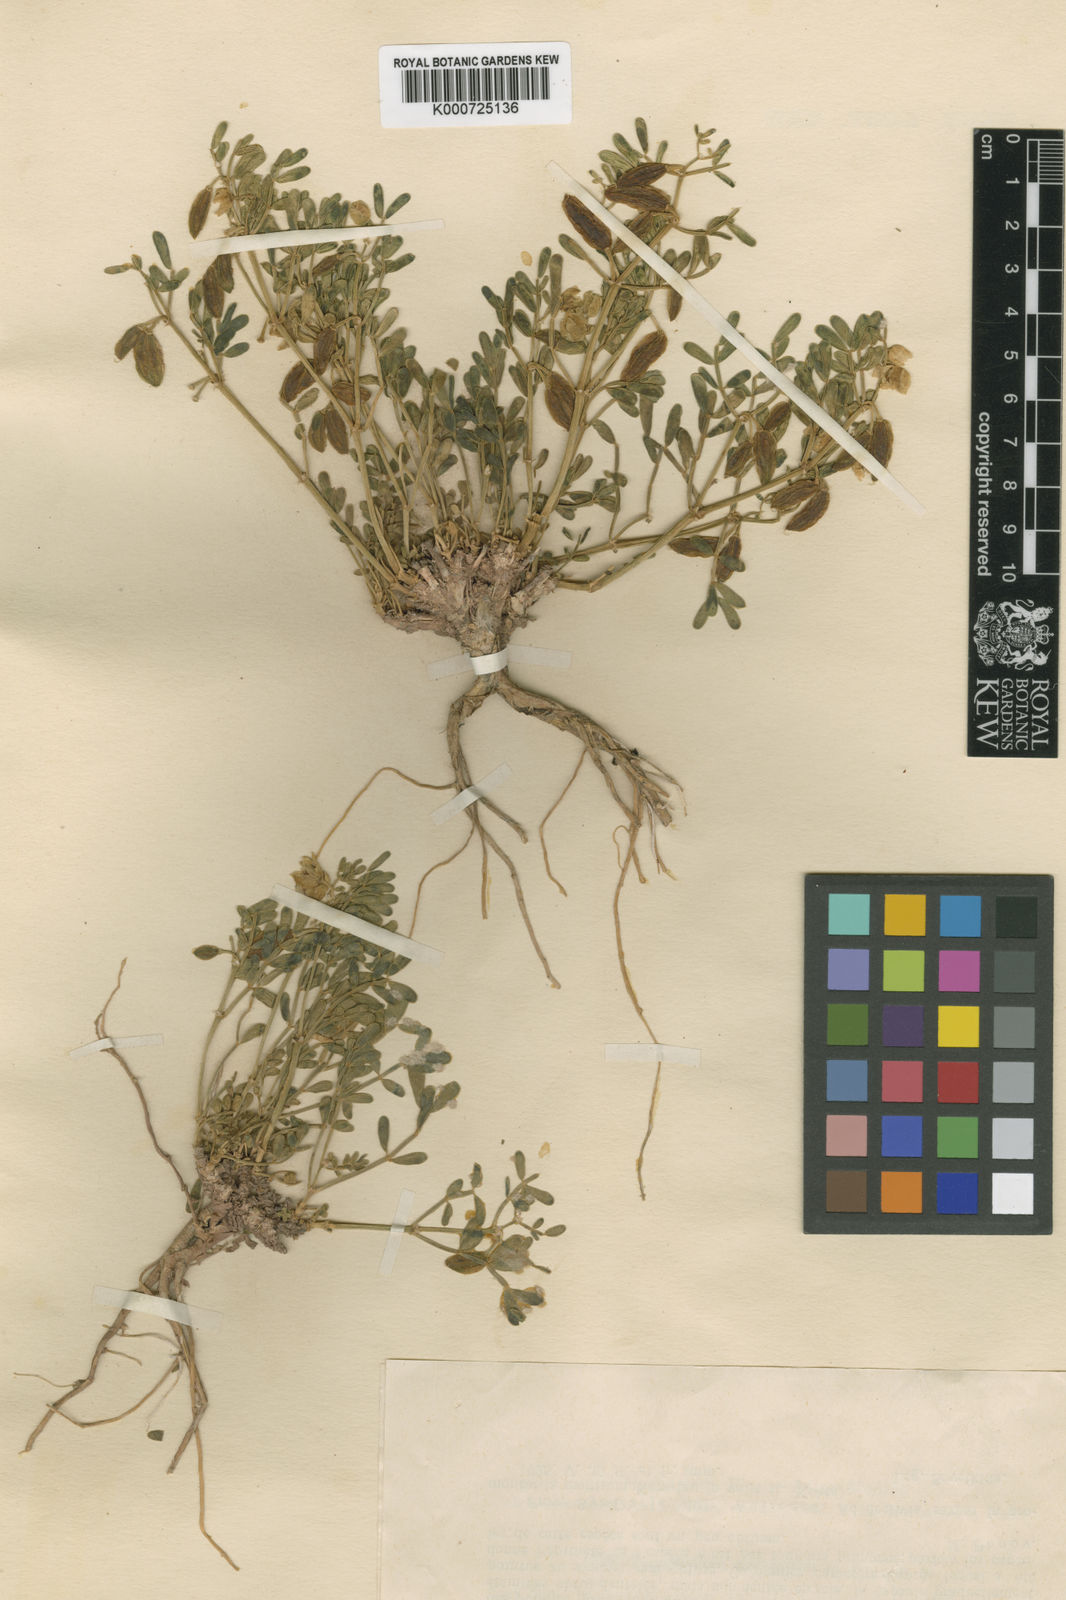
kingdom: Plantae
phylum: Tracheophyta
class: Magnoliopsida
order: Zygophyllales
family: Zygophyllaceae
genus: Zygophyllum
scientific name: Zygophyllum oxycarpum
